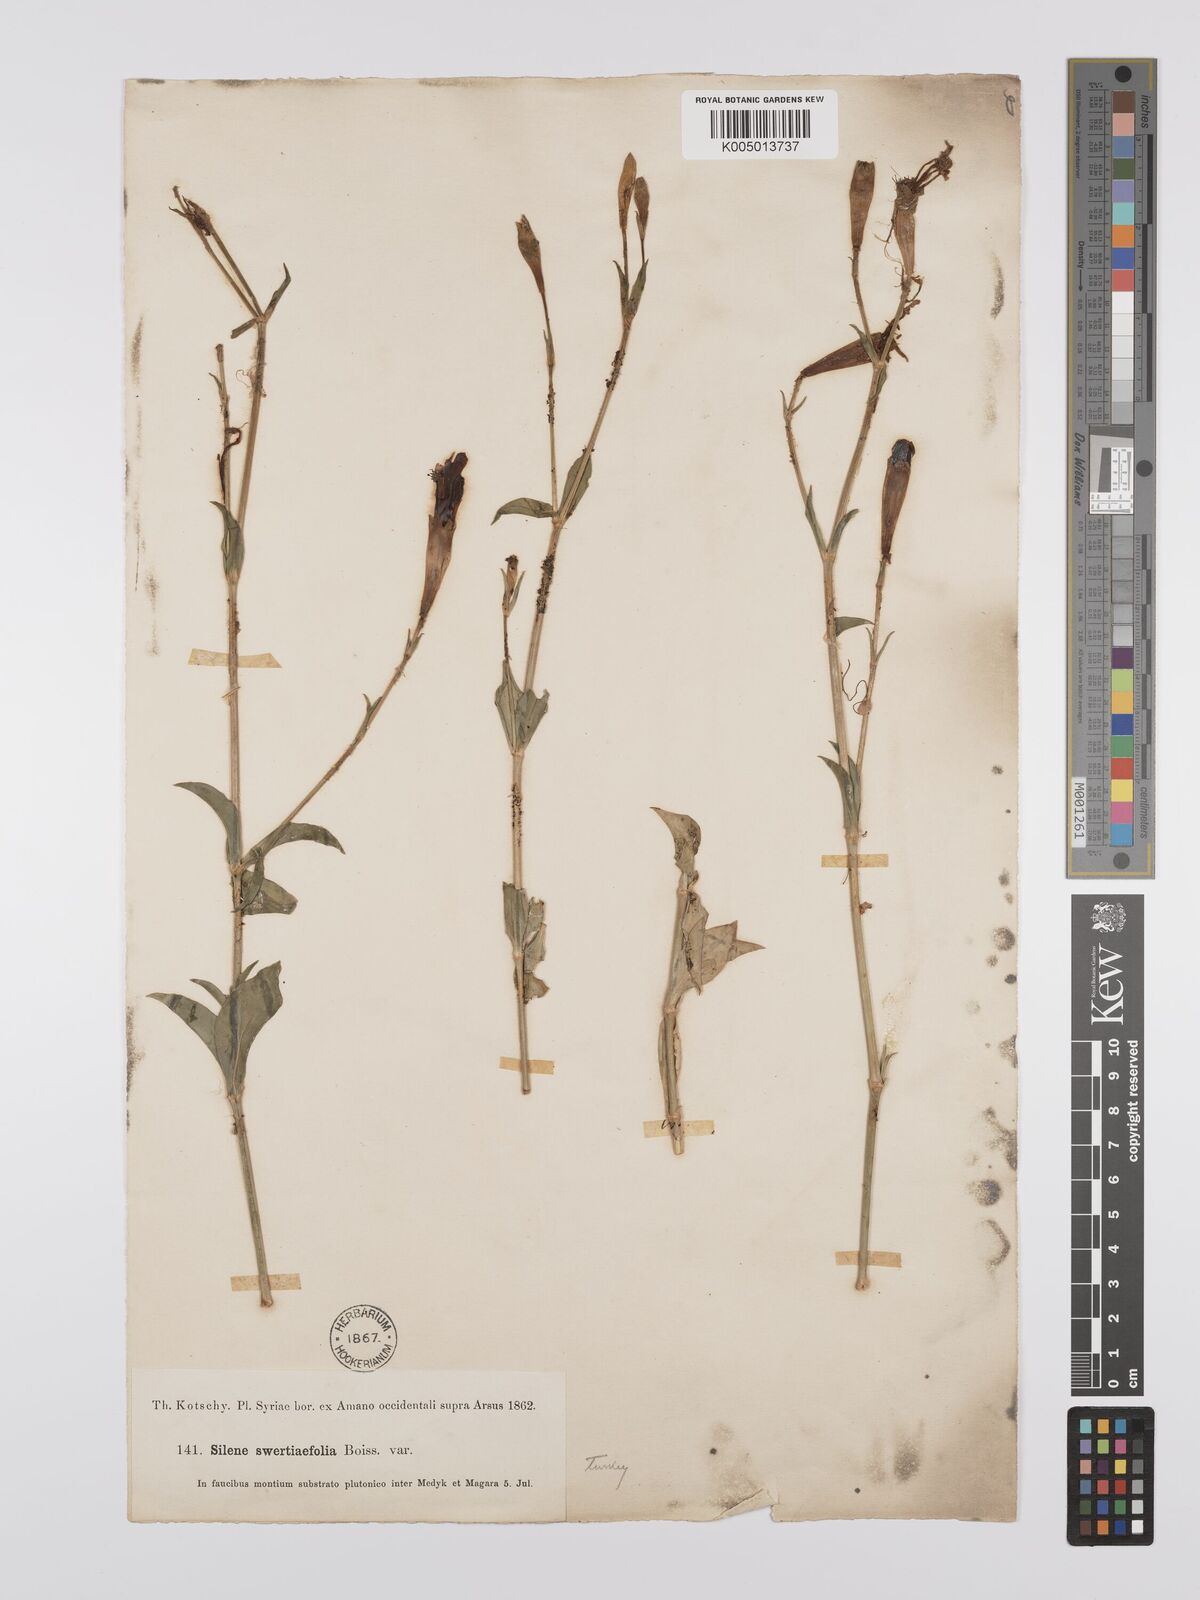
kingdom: Plantae
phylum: Tracheophyta
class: Magnoliopsida
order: Caryophyllales
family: Caryophyllaceae
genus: Silene
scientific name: Silene swertiifolia
